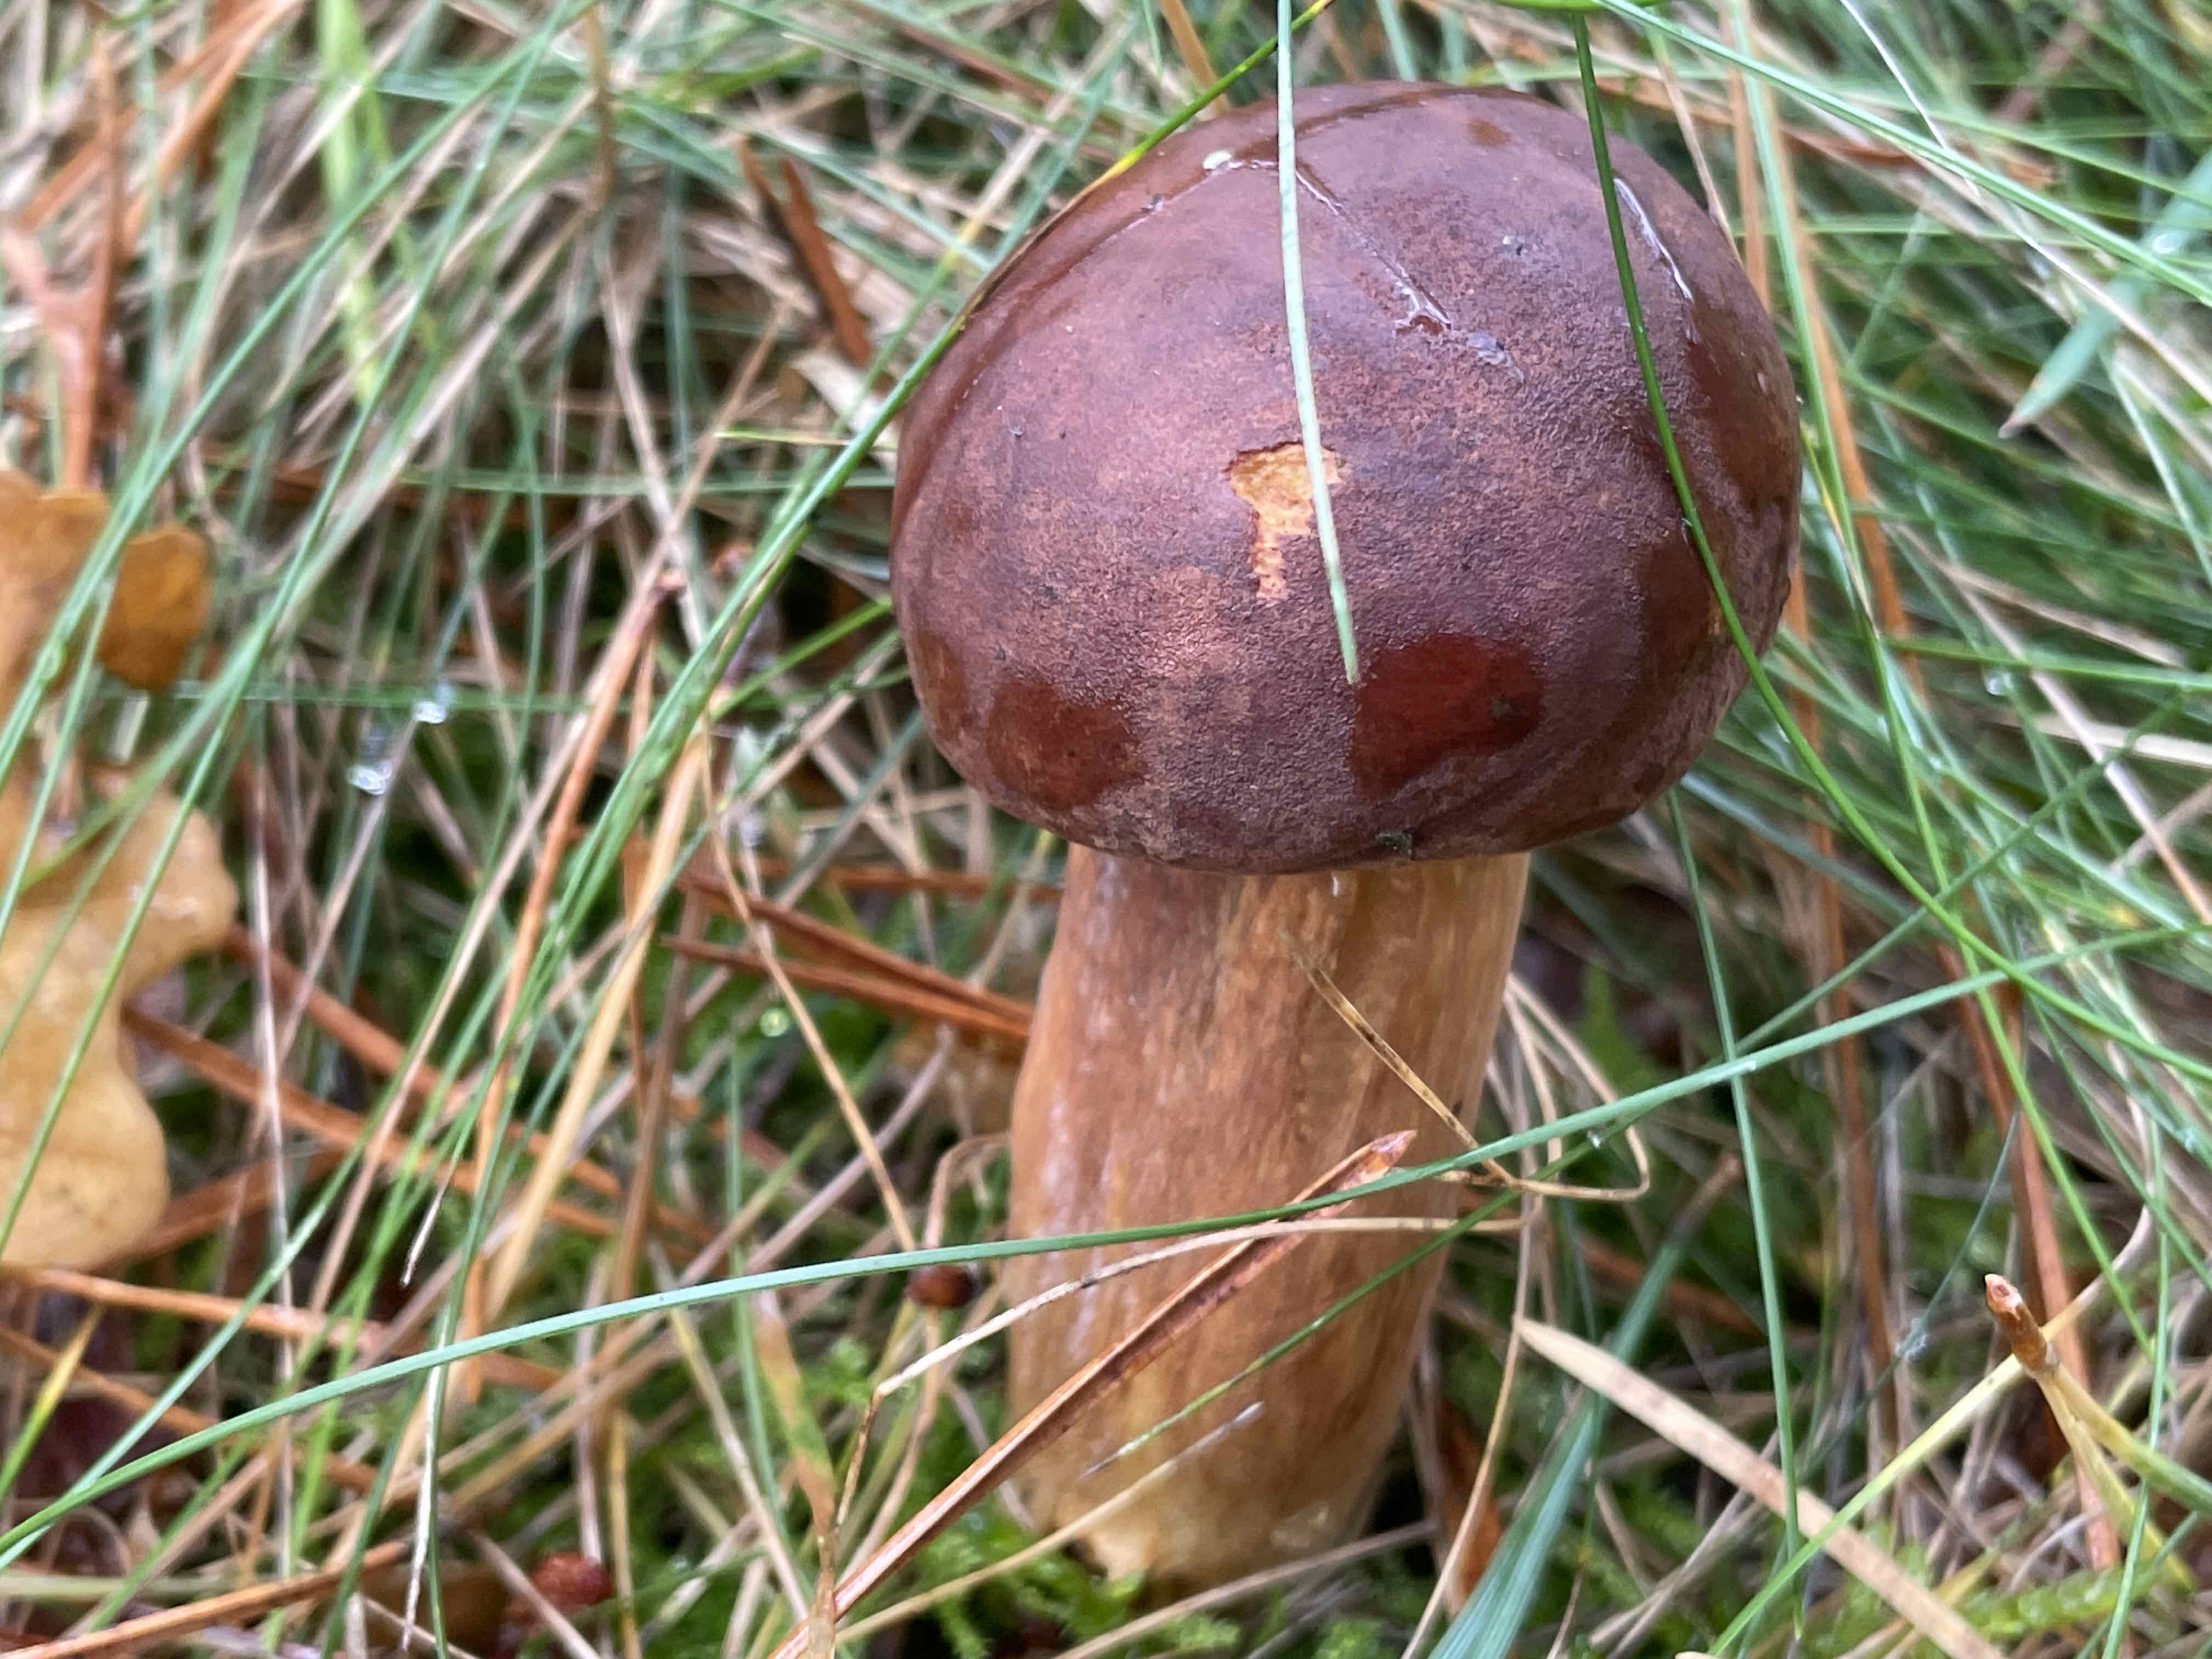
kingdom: Fungi
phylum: Basidiomycota
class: Agaricomycetes
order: Boletales
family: Boletaceae
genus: Imleria
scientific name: Imleria badia
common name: brunstokket rørhat
